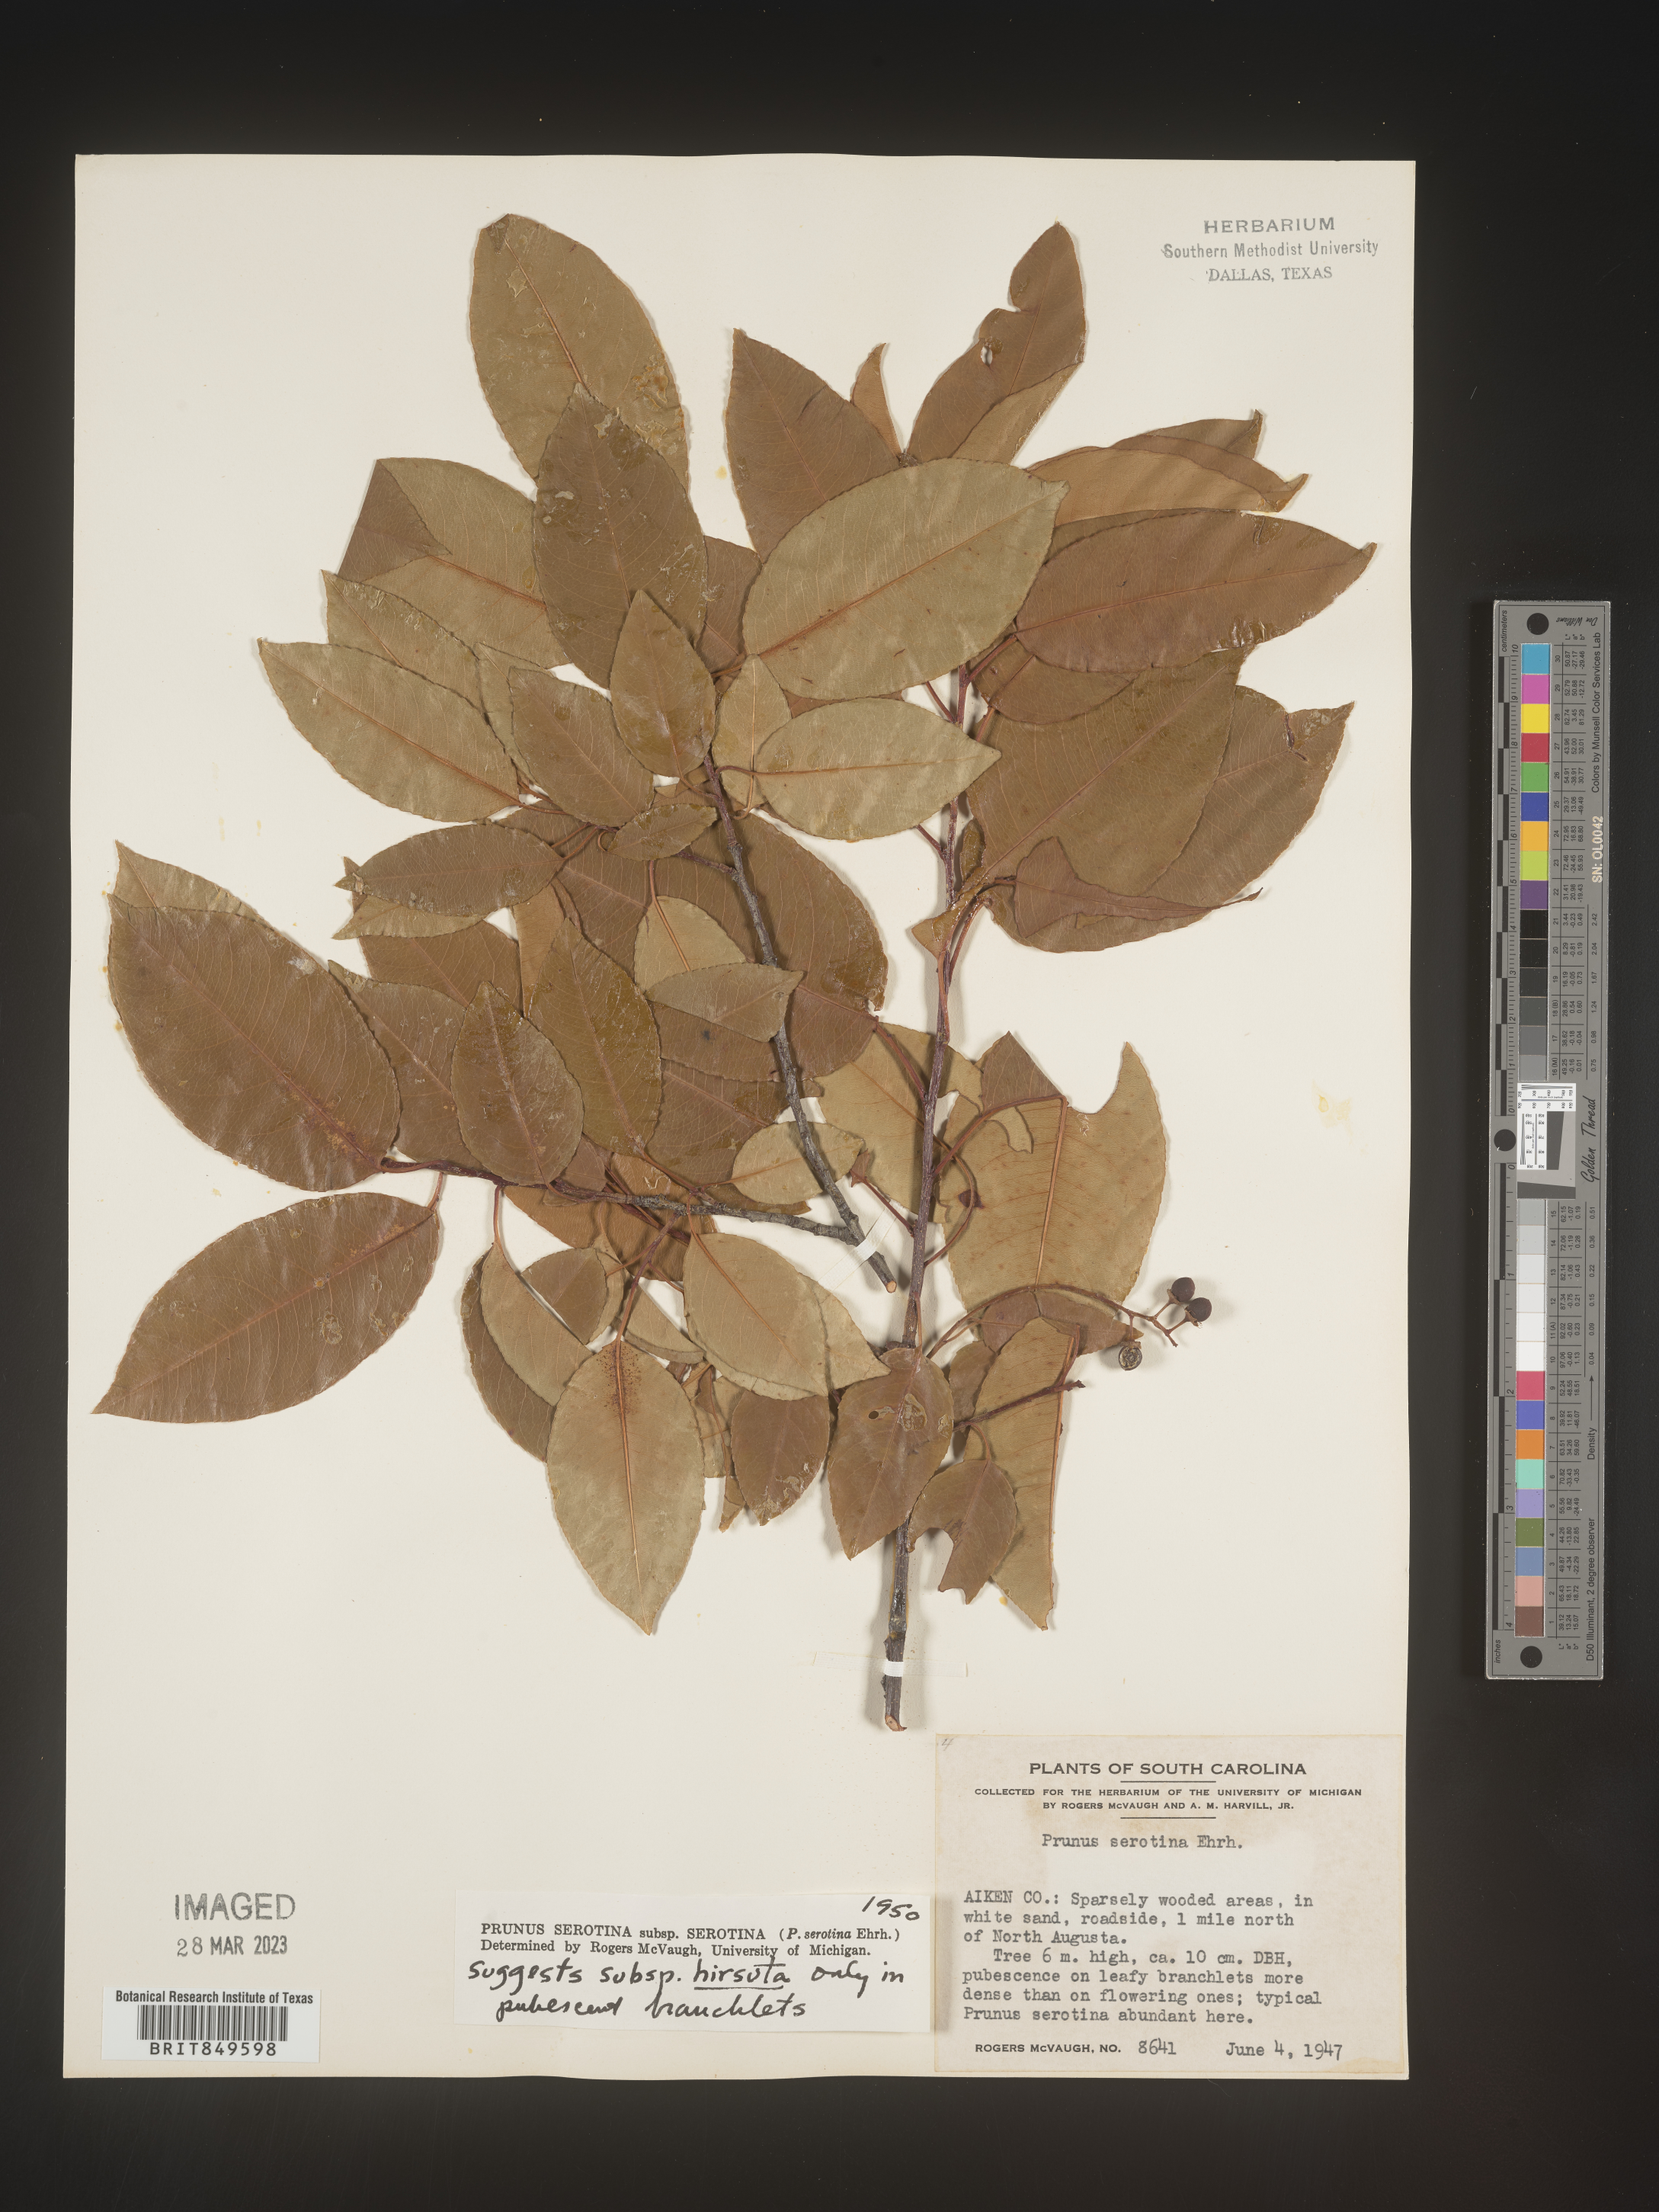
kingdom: Plantae
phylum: Tracheophyta
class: Magnoliopsida
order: Rosales
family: Rosaceae
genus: Prunus
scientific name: Prunus serotina
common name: Black cherry
